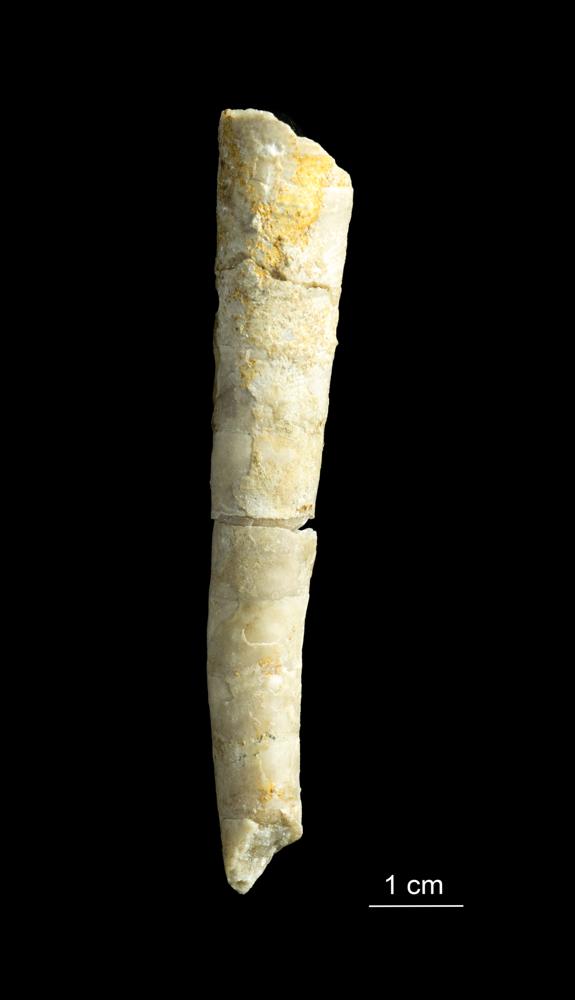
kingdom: Animalia
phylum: Mollusca
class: Cephalopoda
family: Tarphyceratidae
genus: Eurystomites
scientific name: Eurystomites Lituites undatus
